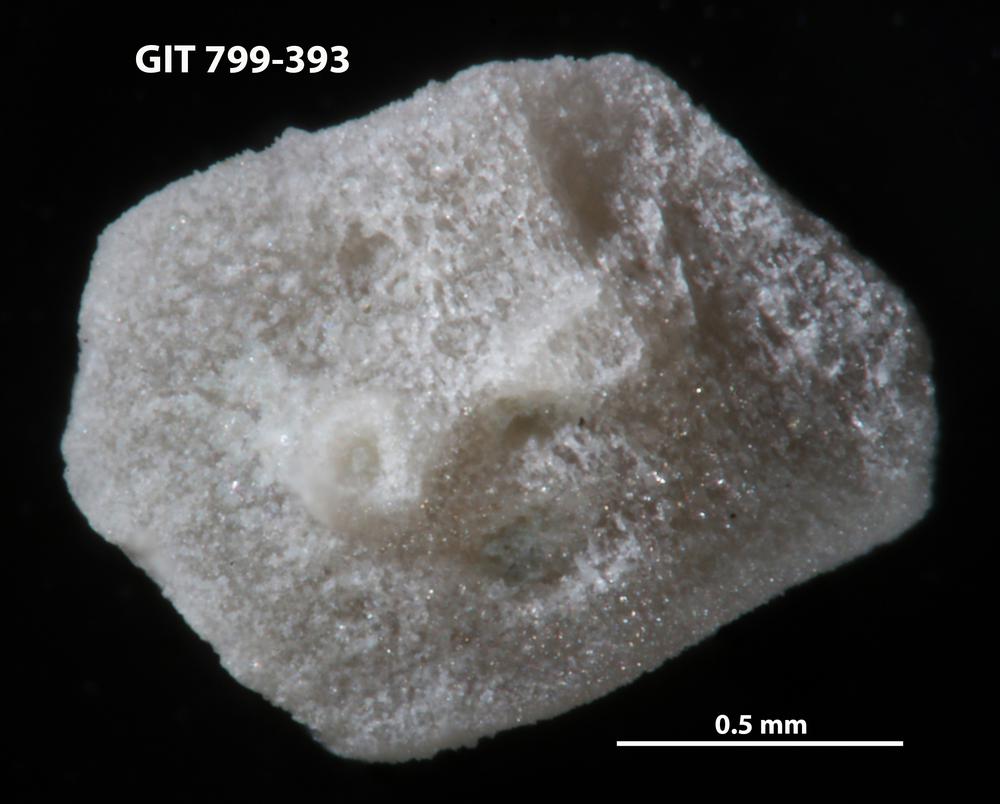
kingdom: Animalia
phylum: Echinodermata
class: Echinoidea
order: Bothriocidaroida
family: Bothriocidaridae
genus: Bothriocidaris
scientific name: Bothriocidaris
